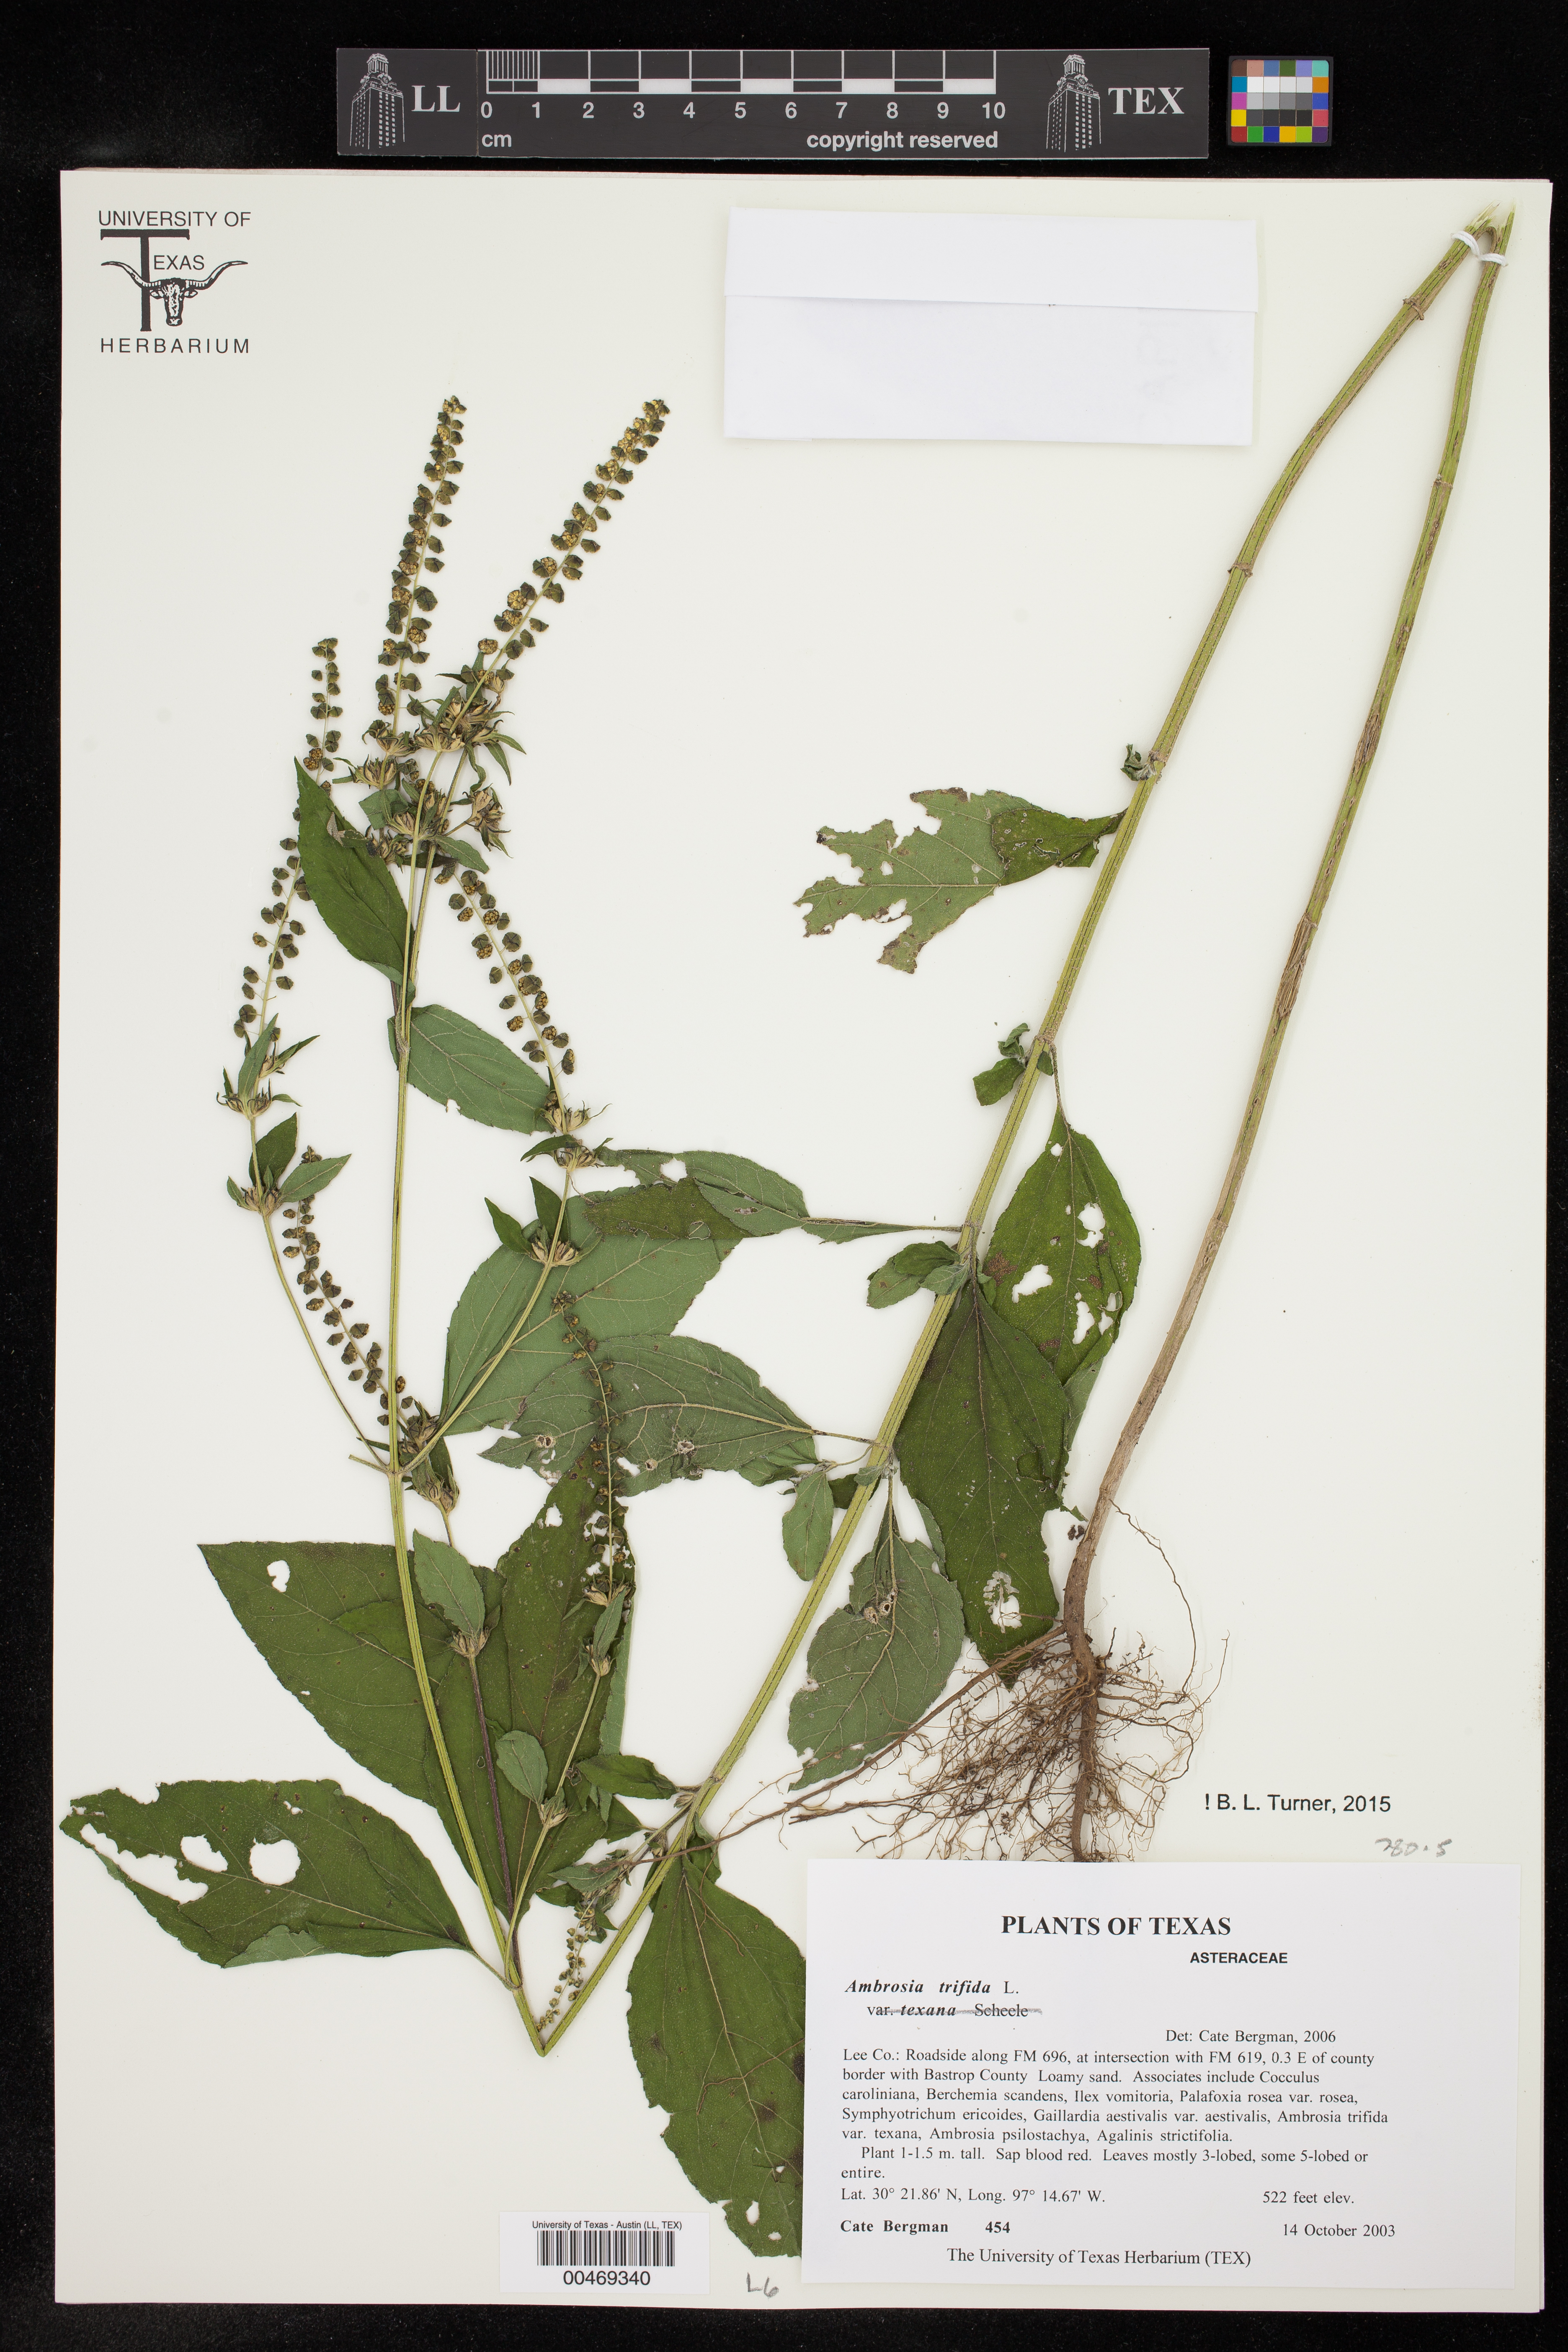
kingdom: Plantae
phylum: Tracheophyta
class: Magnoliopsida
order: Asterales
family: Asteraceae
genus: Ambrosia
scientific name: Ambrosia trifida
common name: Giant ragweed
